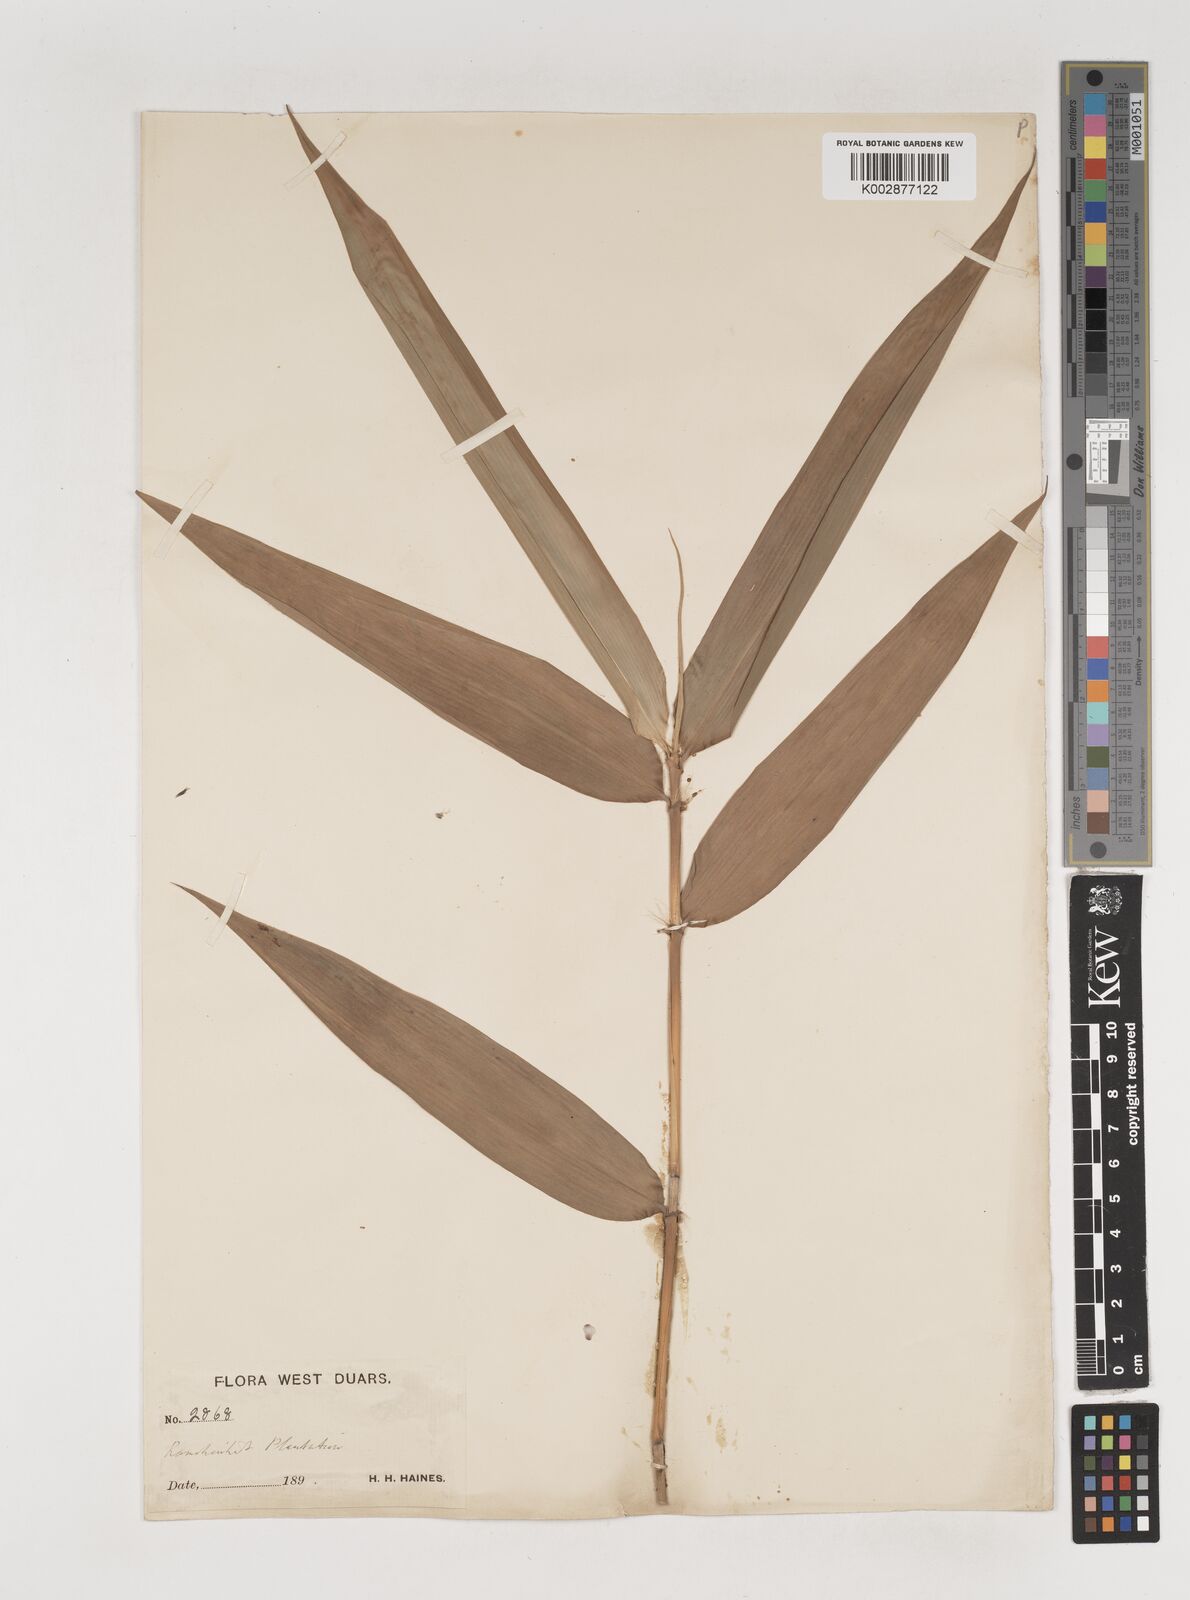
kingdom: Plantae
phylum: Tracheophyta
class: Liliopsida
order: Poales
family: Poaceae
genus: Bambusa
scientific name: Bambusa pallida
